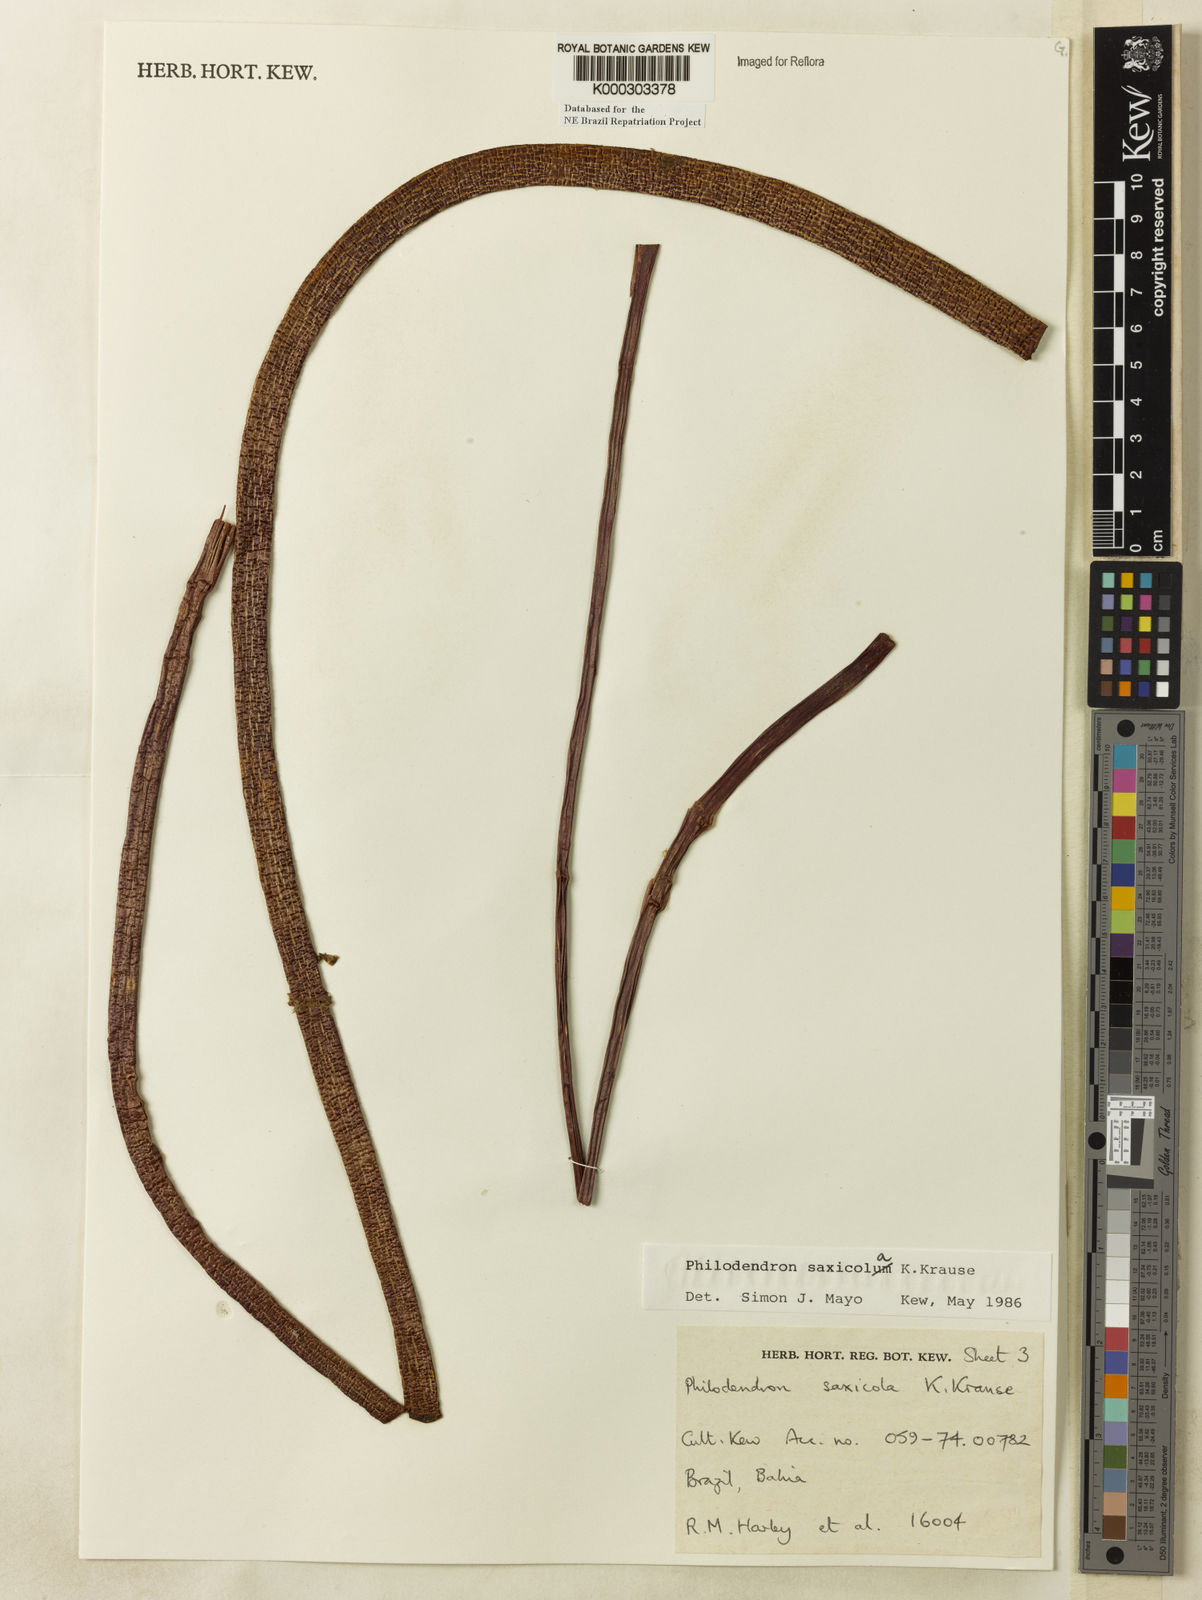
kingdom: Plantae
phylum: Tracheophyta
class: Liliopsida
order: Alismatales
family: Araceae
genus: Thaumatophyllum
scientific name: Thaumatophyllum saxicola
